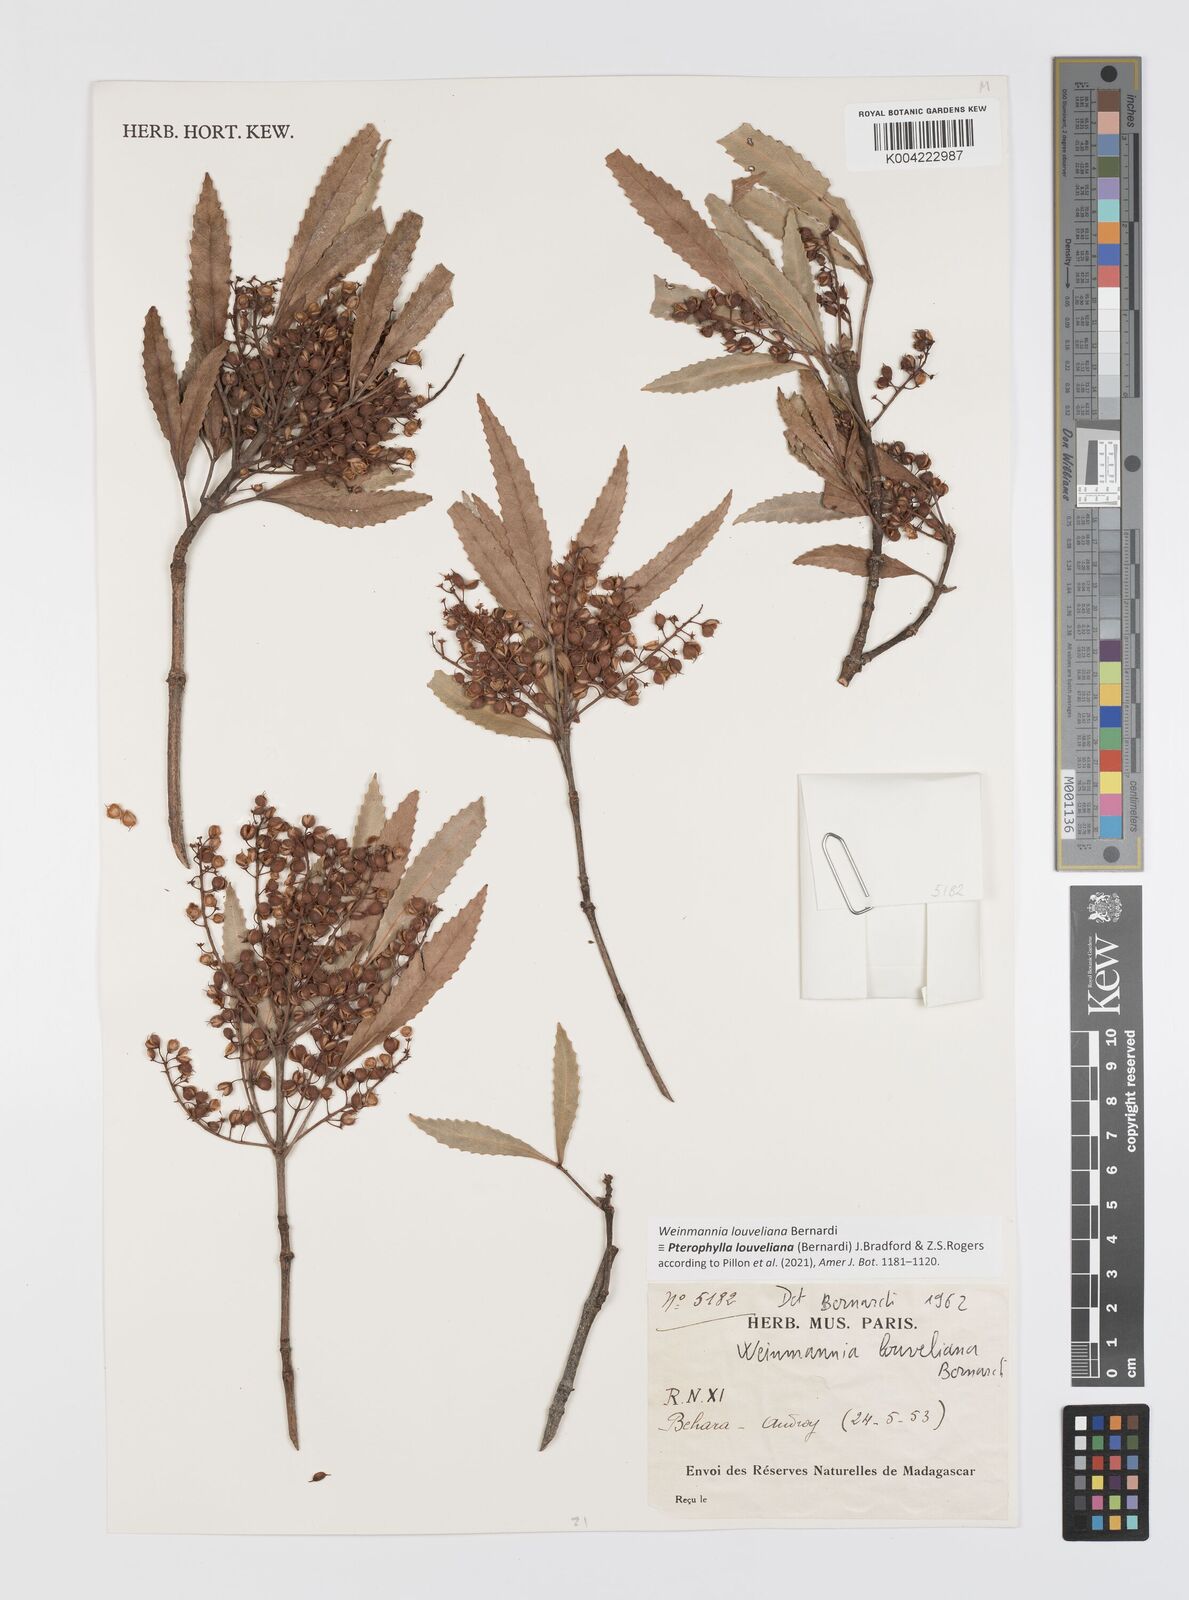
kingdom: Plantae
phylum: Tracheophyta
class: Magnoliopsida
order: Oxalidales
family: Cunoniaceae
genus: Pterophylla
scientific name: Pterophylla louveliana
